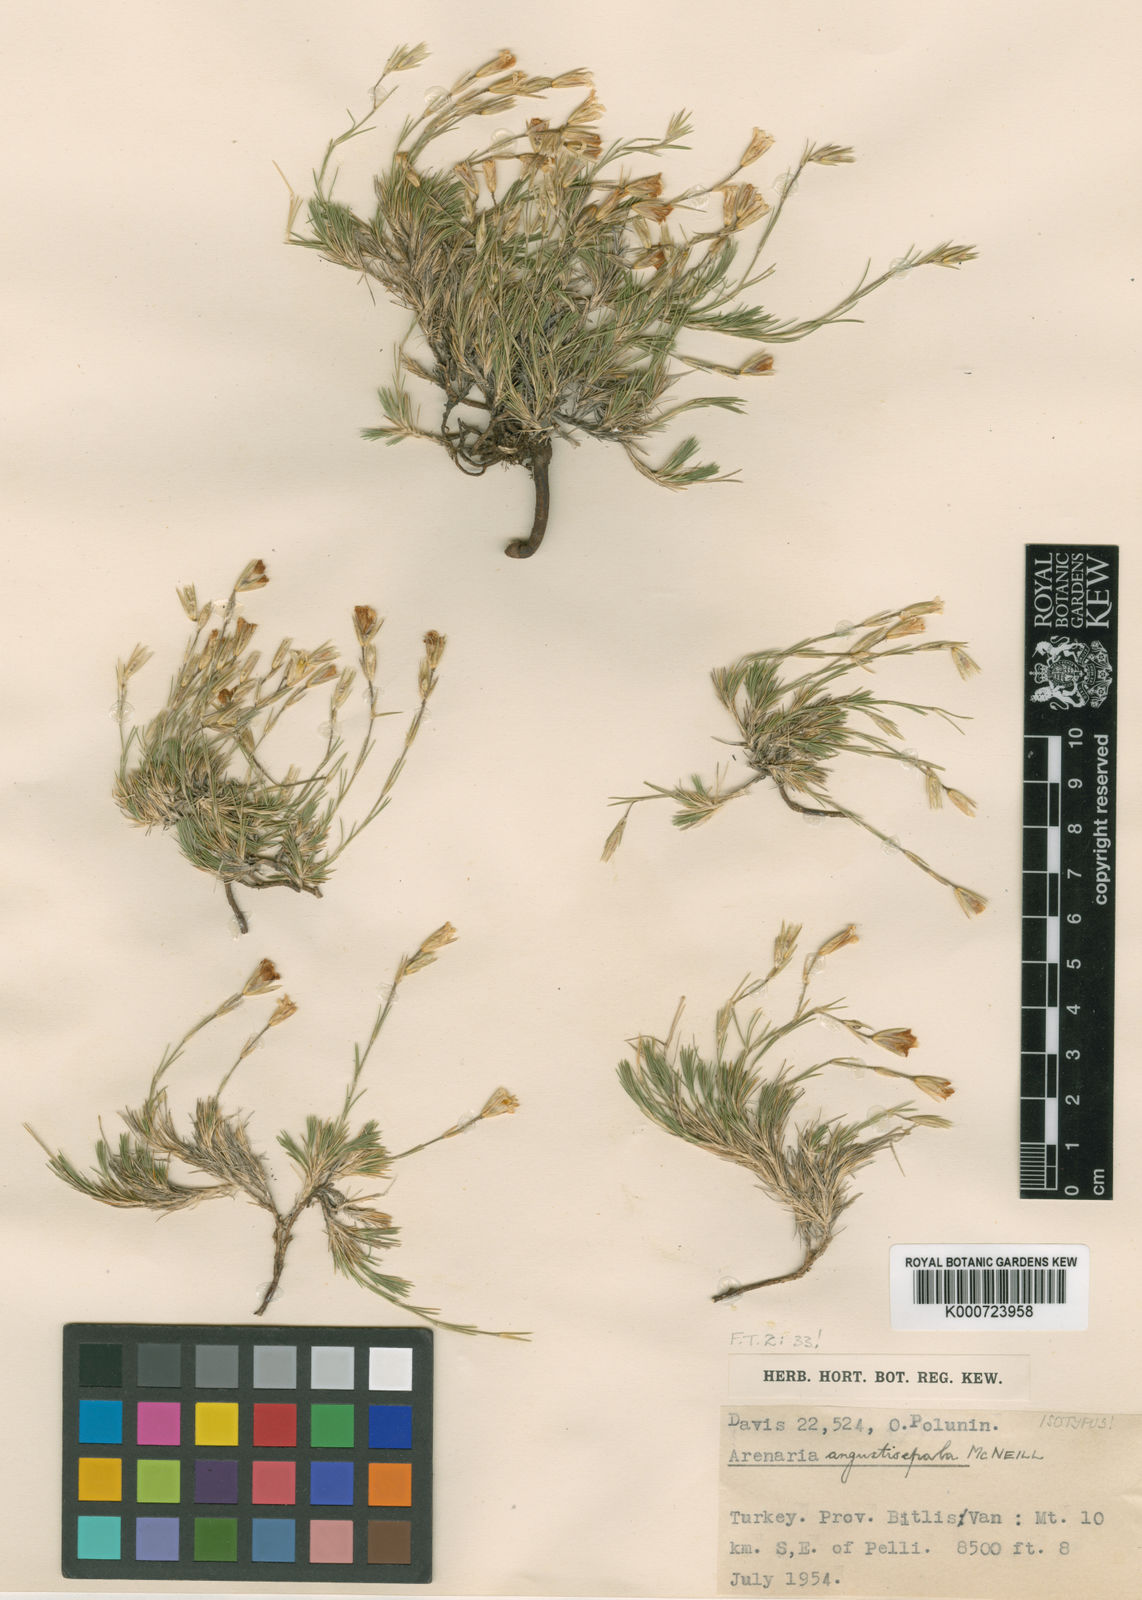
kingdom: Plantae
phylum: Tracheophyta
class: Magnoliopsida
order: Caryophyllales
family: Caryophyllaceae
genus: Eremogone
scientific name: Eremogone angustisepala
